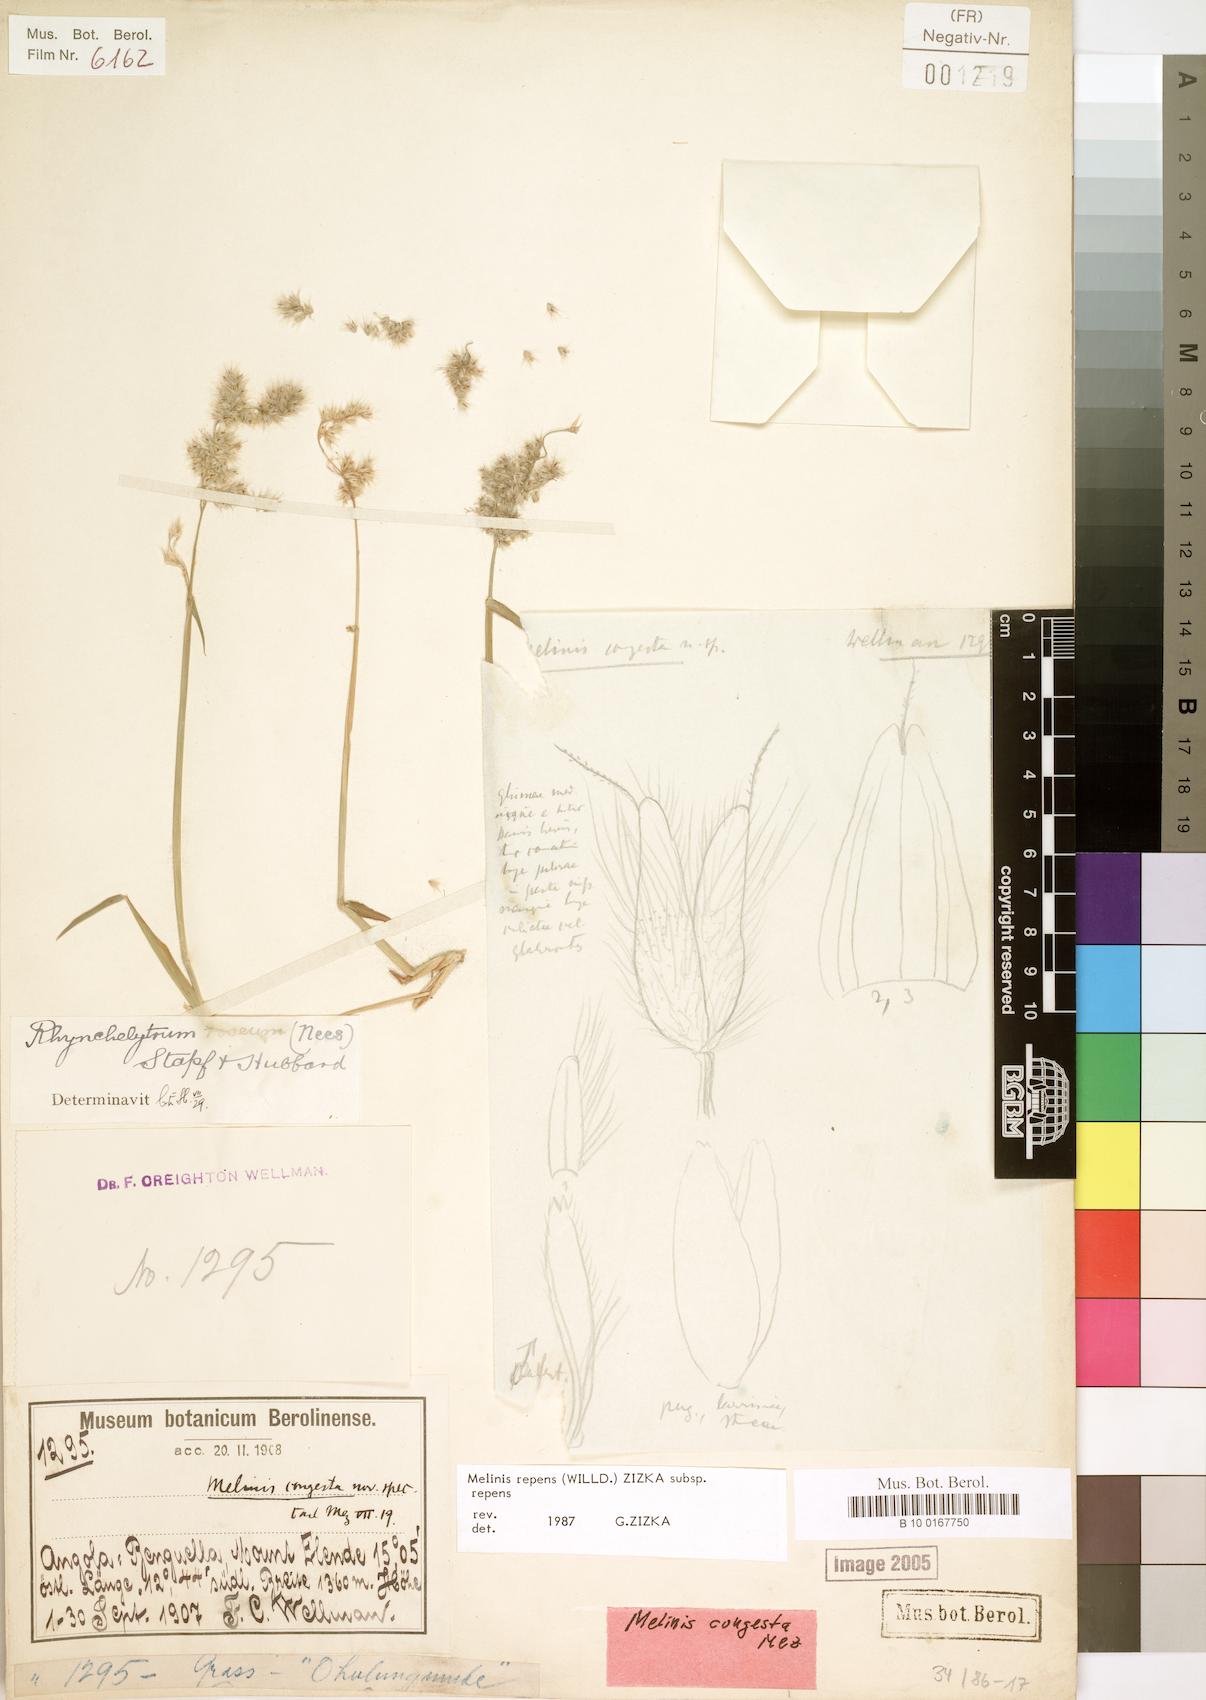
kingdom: Plantae
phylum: Tracheophyta
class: Liliopsida
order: Poales
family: Poaceae
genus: Melinis
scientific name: Melinis repens
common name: Rose natal grass
